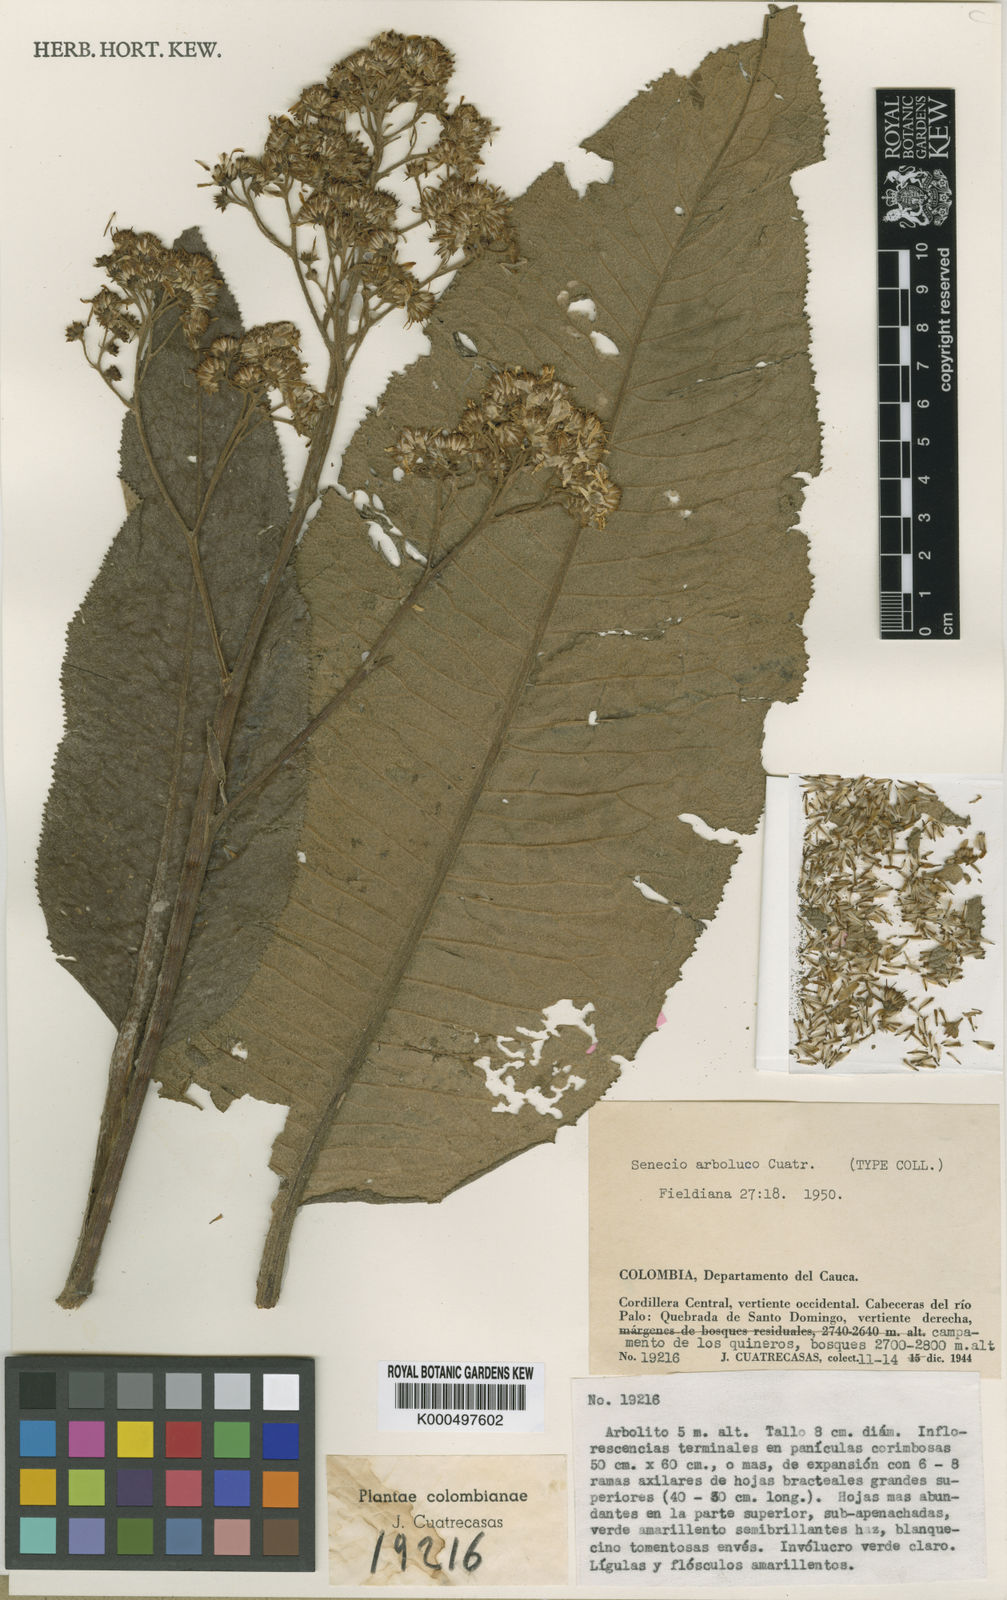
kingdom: Plantae
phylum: Tracheophyta
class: Magnoliopsida
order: Asterales
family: Asteraceae
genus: Dendrophorbium
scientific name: Dendrophorbium arboluco
